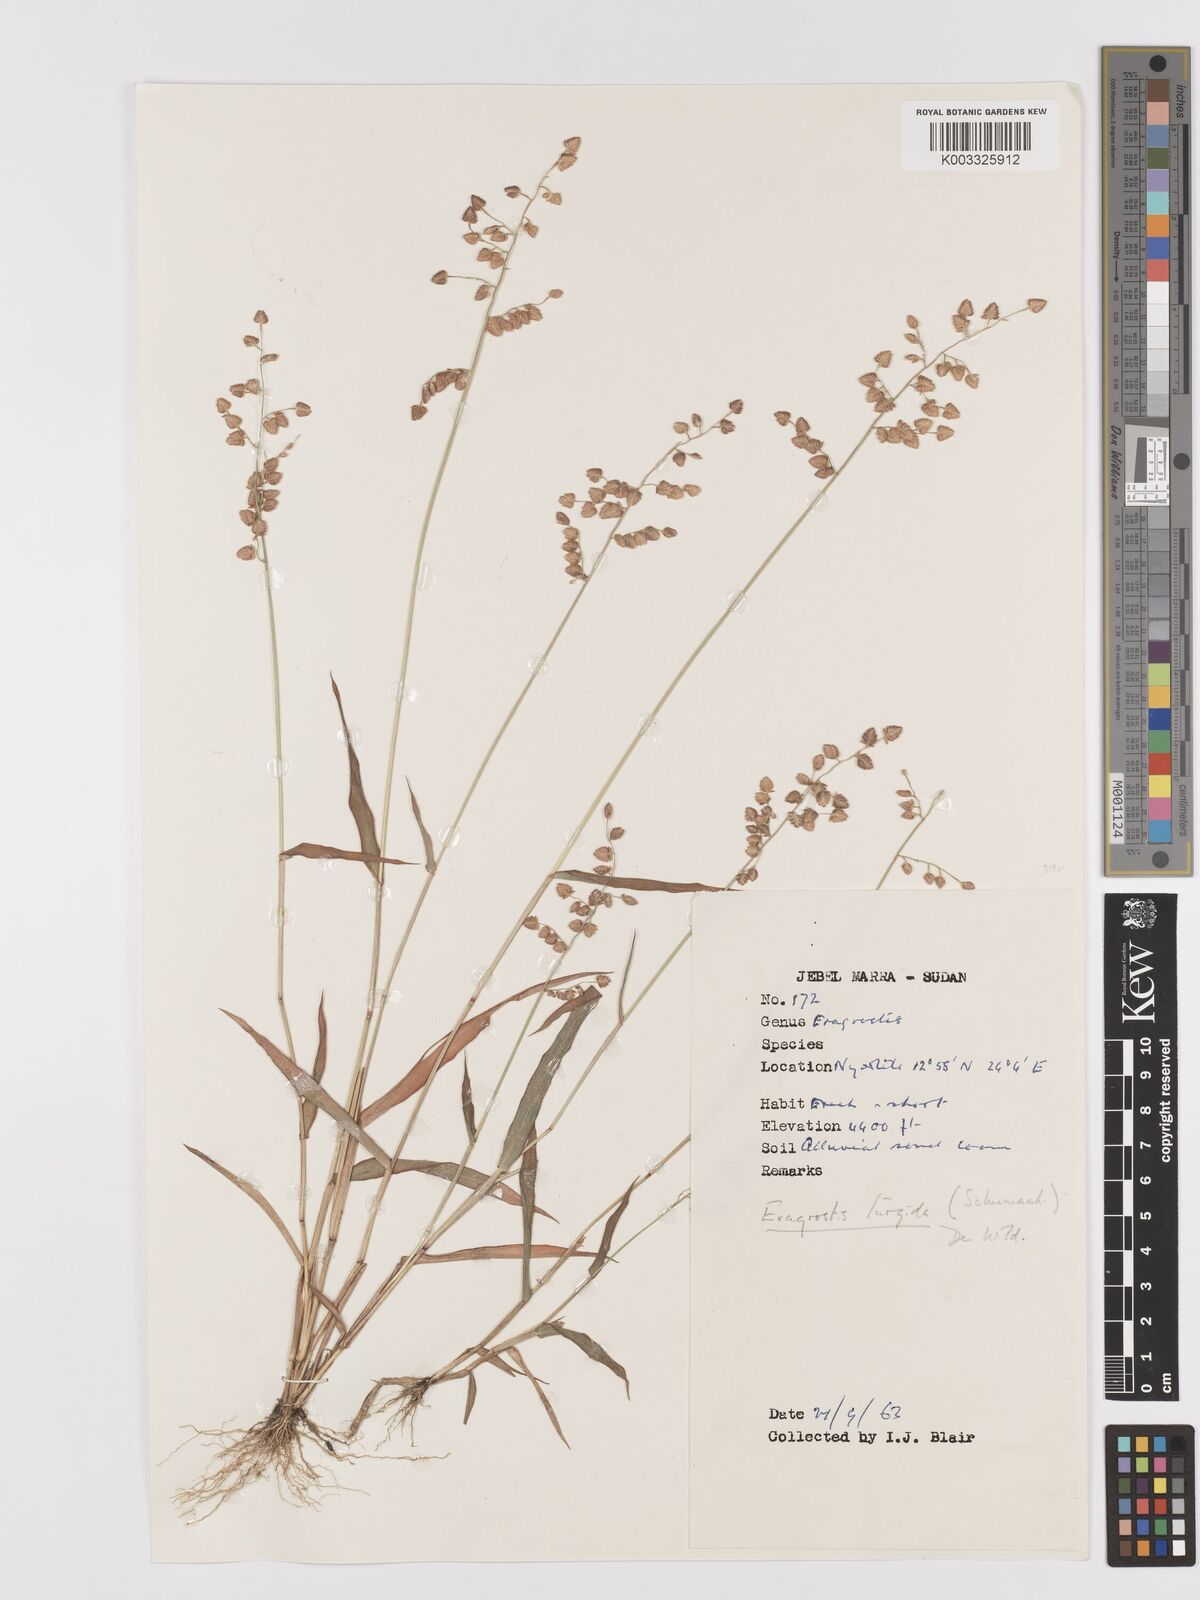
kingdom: Plantae
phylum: Tracheophyta
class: Liliopsida
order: Poales
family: Poaceae
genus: Eragrostis
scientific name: Eragrostis turgida
